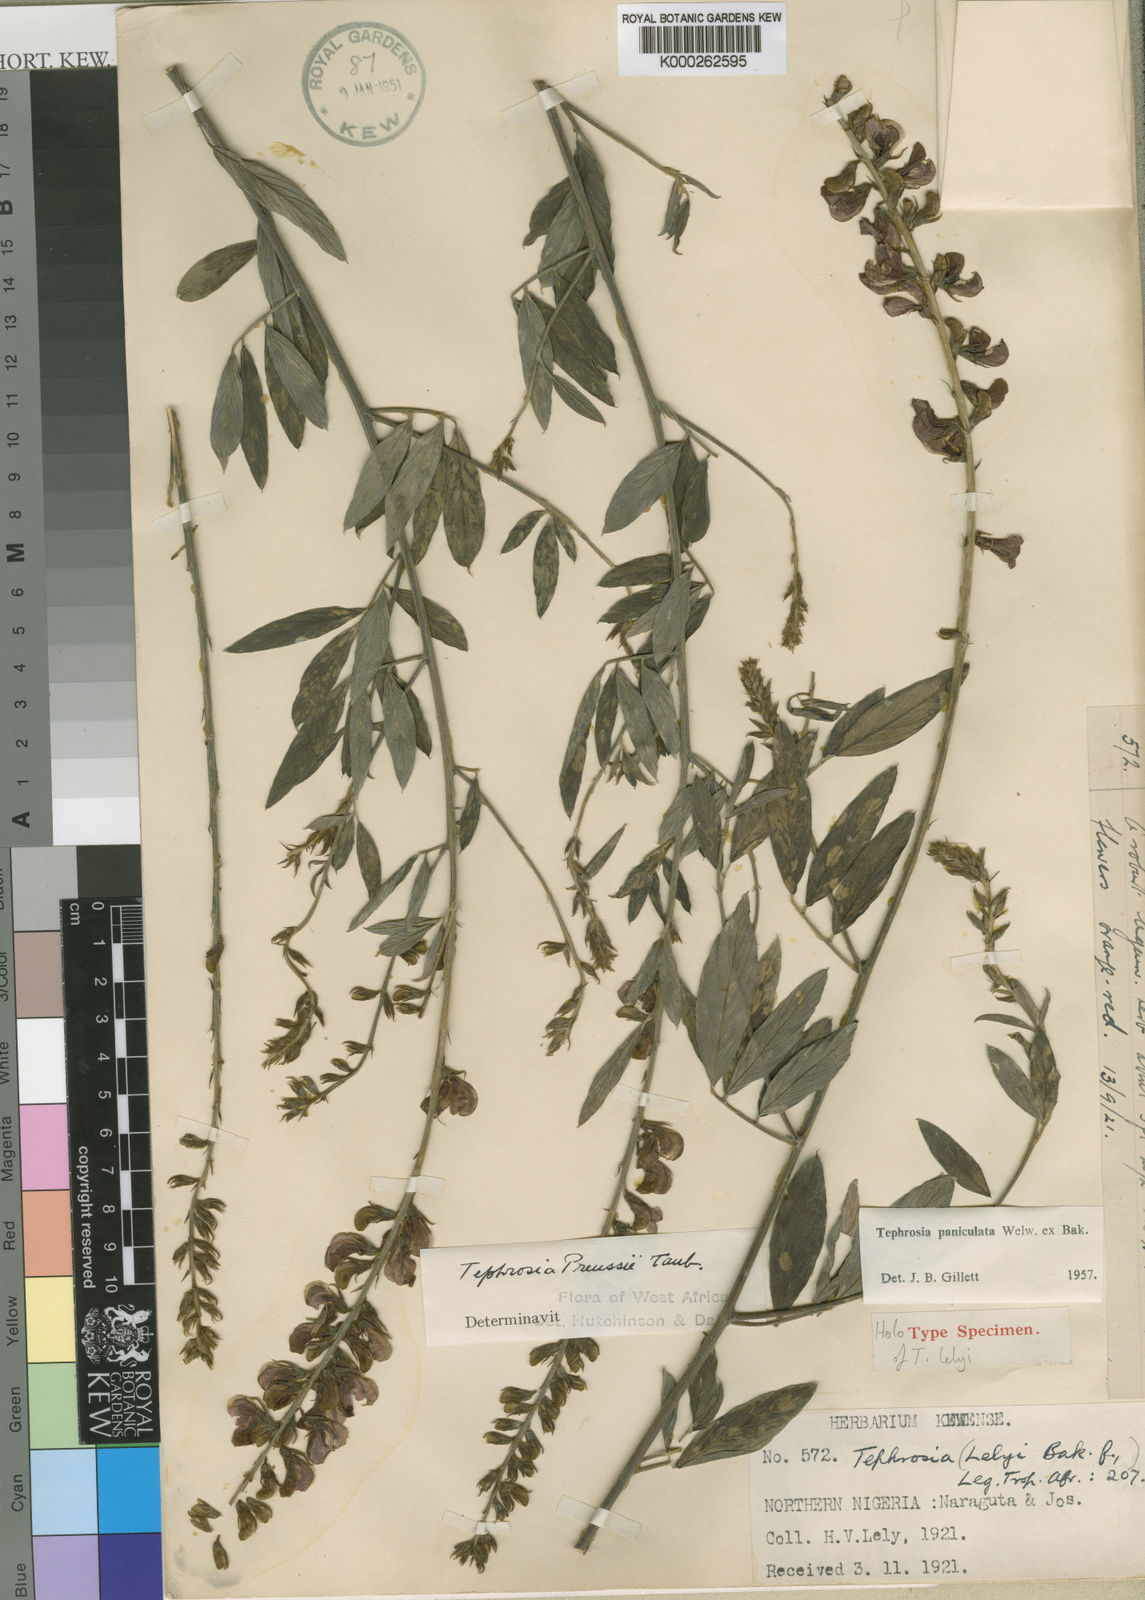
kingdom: Plantae
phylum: Tracheophyta
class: Magnoliopsida
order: Fabales
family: Fabaceae
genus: Tephrosia
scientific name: Tephrosia paniculata
